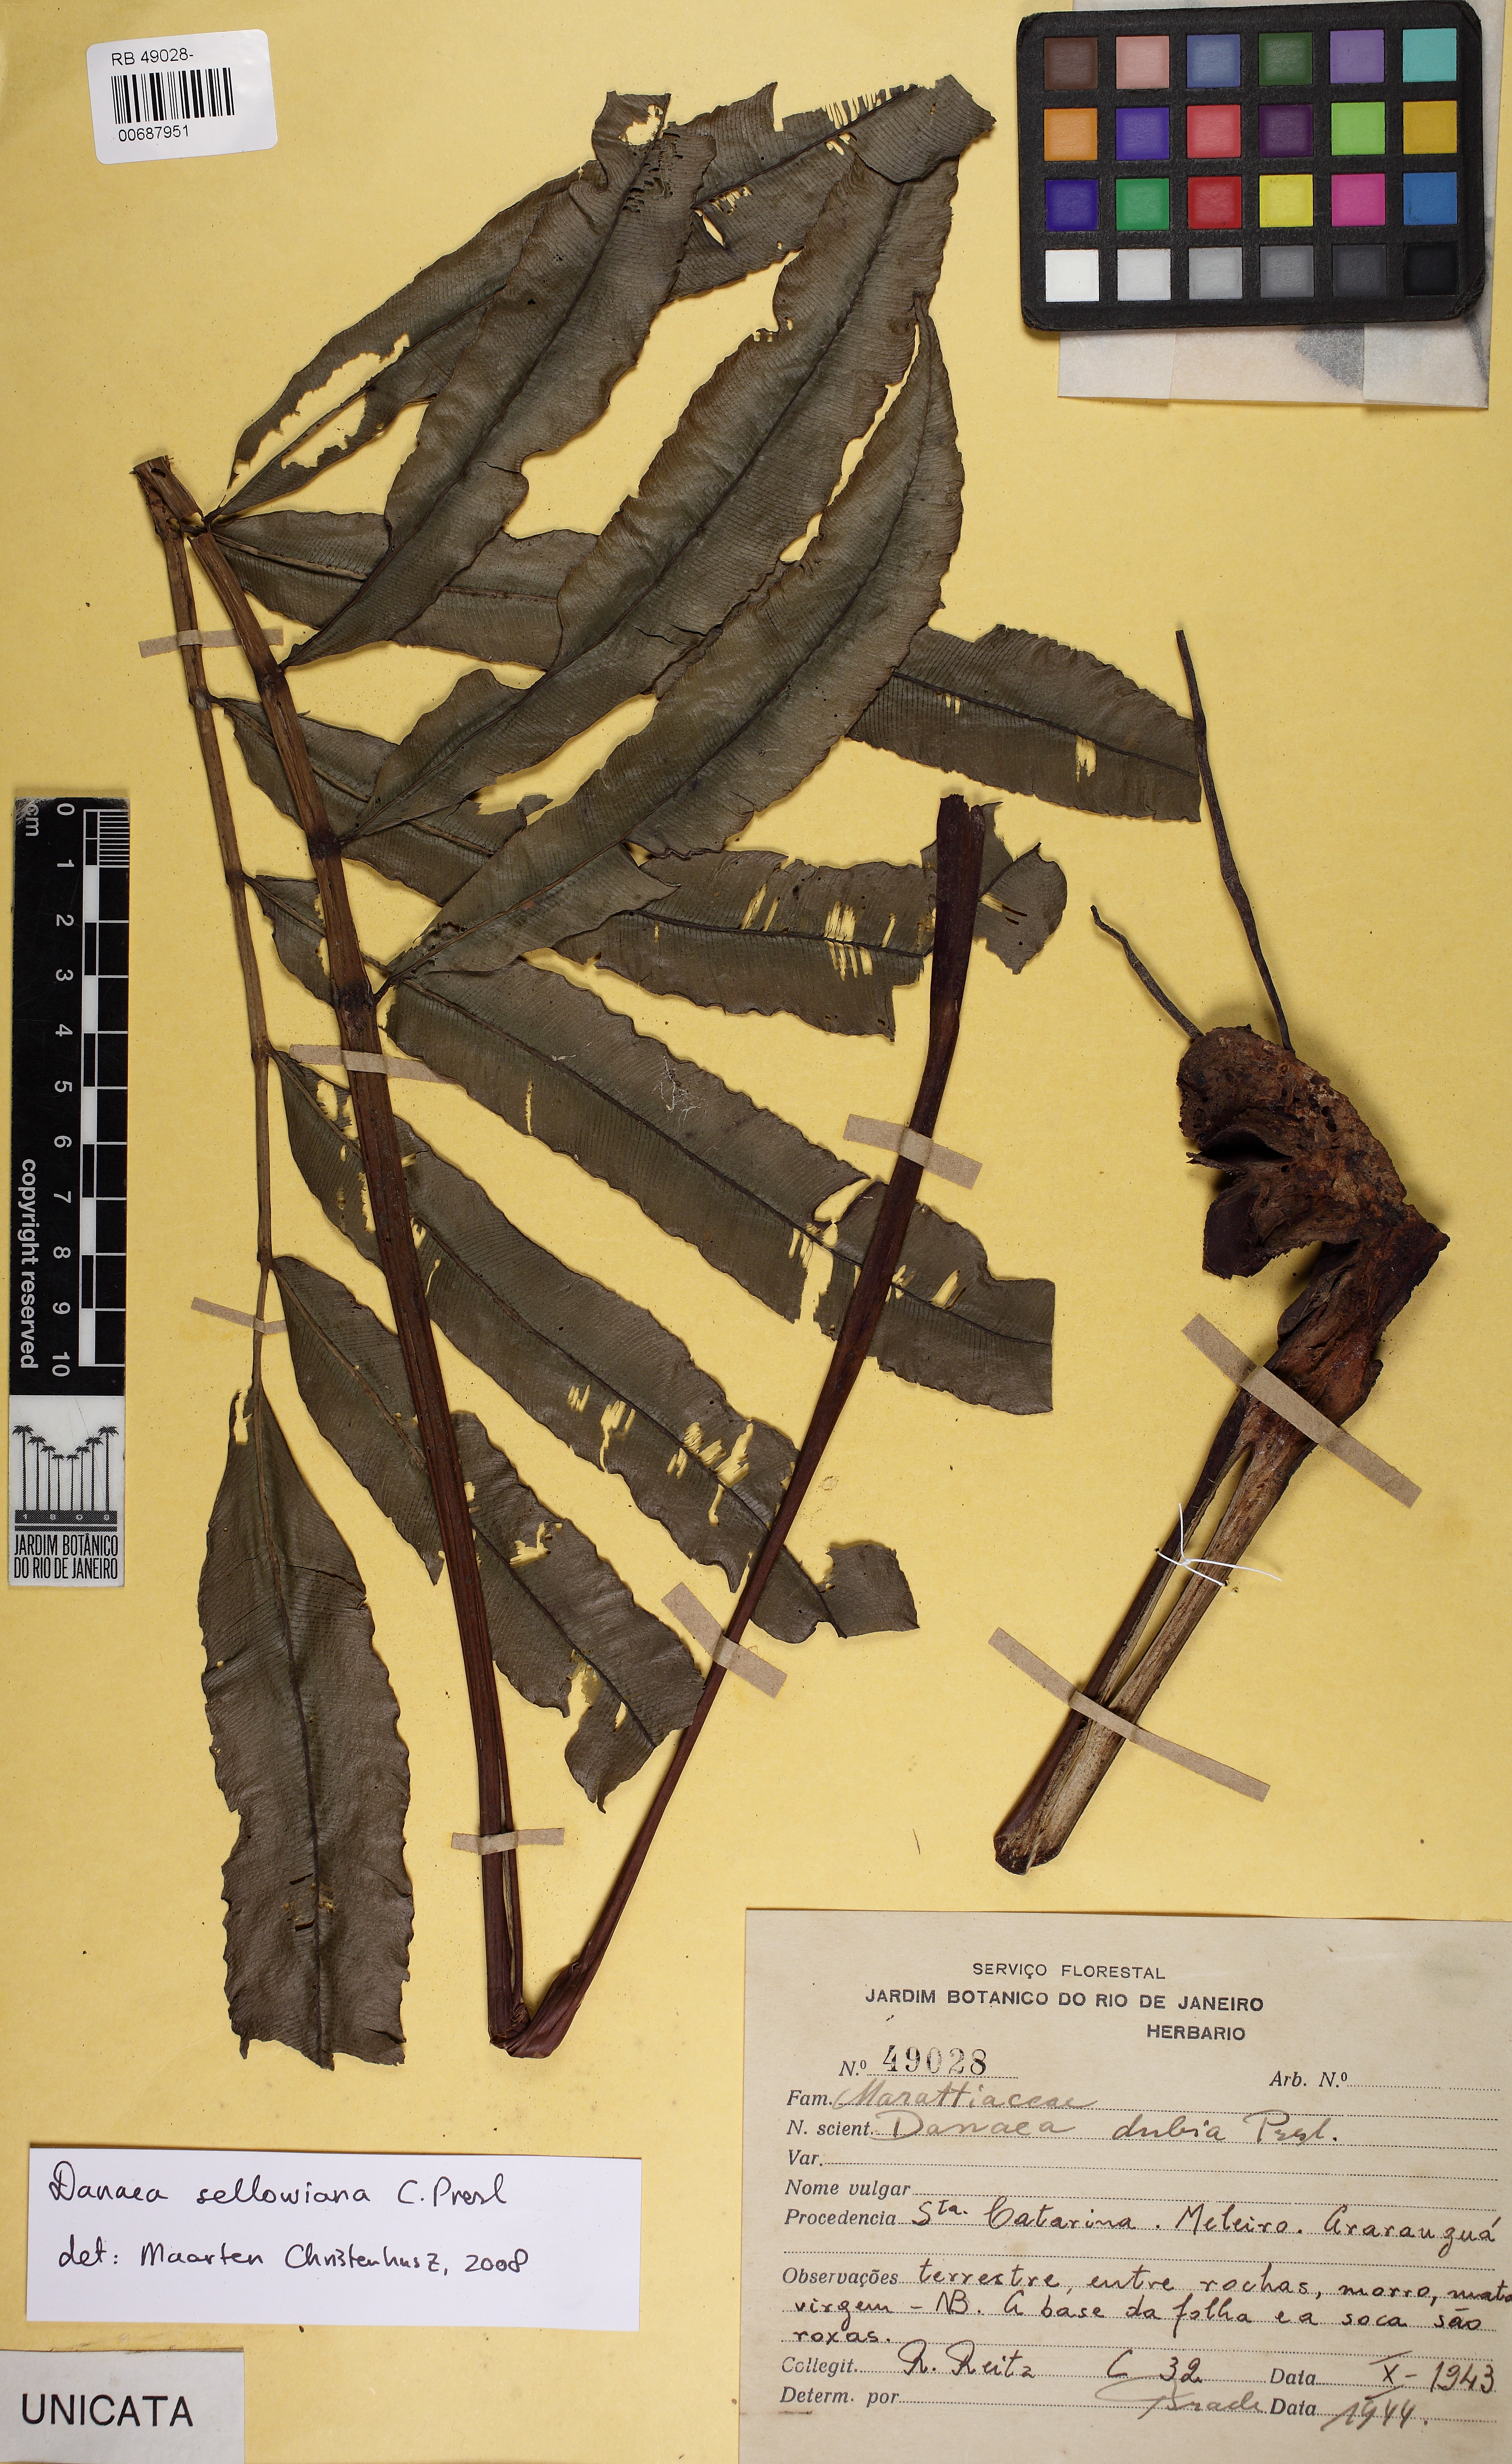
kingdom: Plantae
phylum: Tracheophyta
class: Polypodiopsida
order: Marattiales
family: Marattiaceae
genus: Danaea
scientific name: Danaea nodosa
